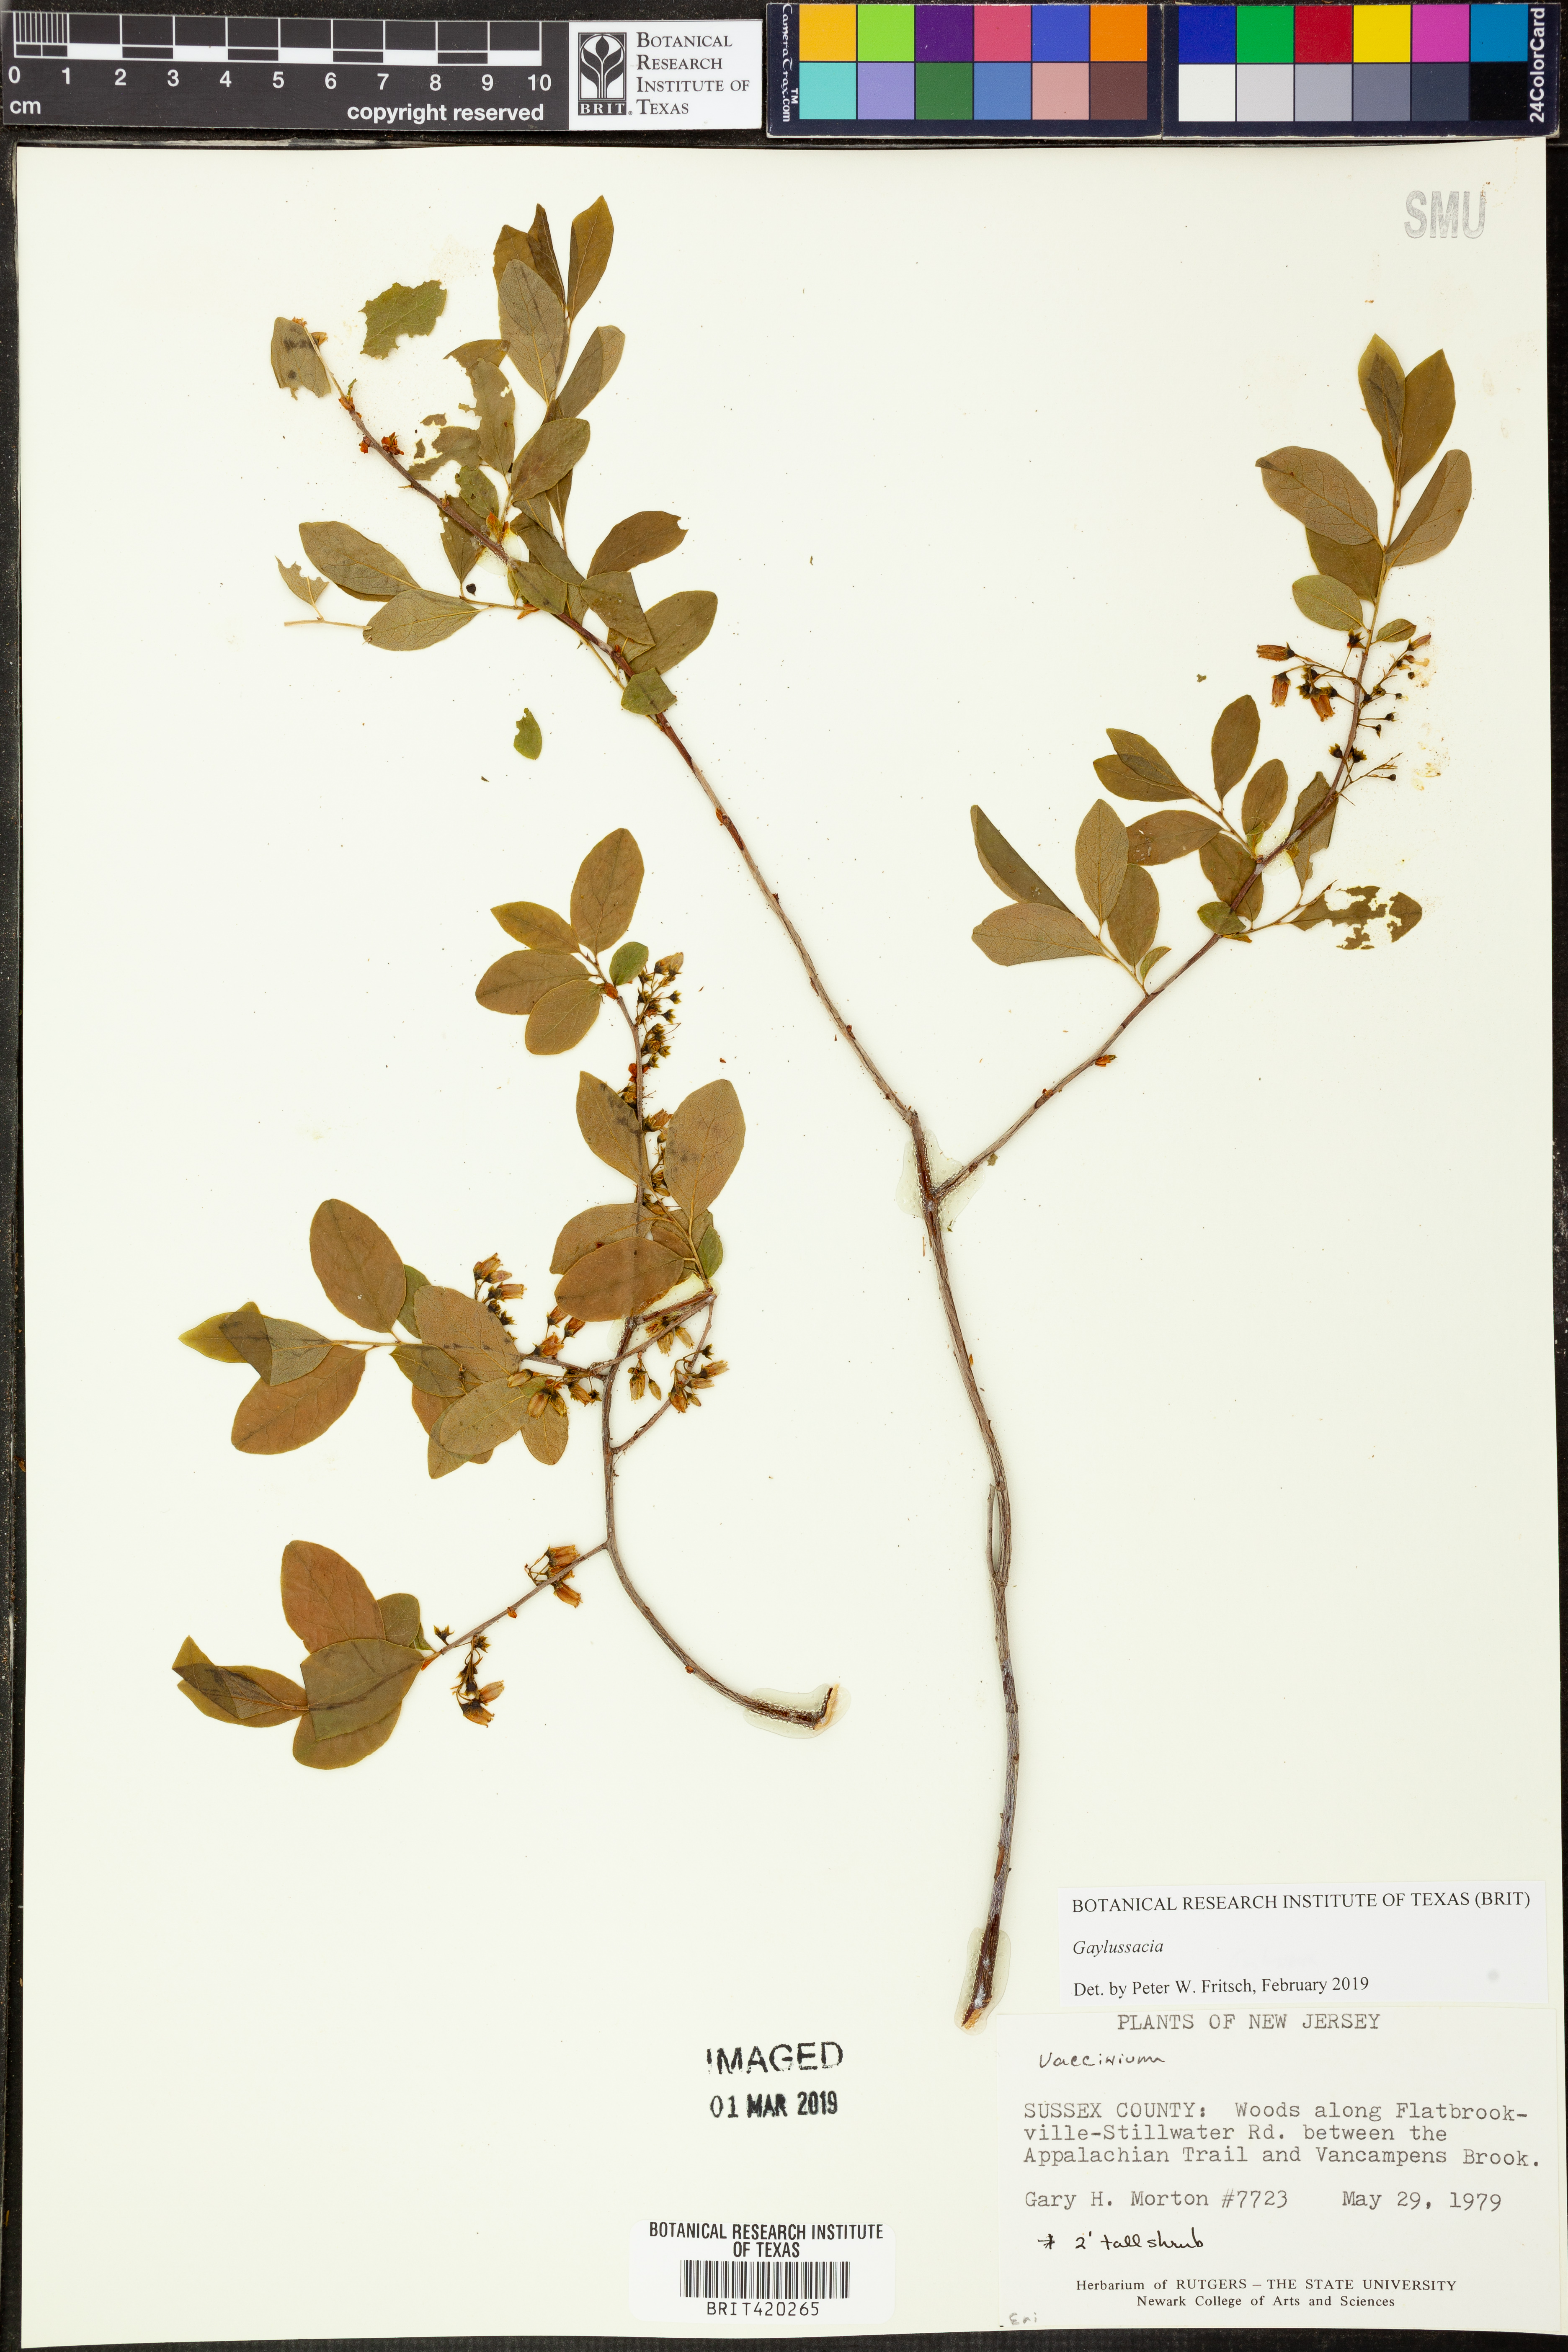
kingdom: Plantae
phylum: Tracheophyta
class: Magnoliopsida
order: Ericales
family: Ericaceae
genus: Gaylussacia
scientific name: Gaylussacia frondosa
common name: Dangleberry
